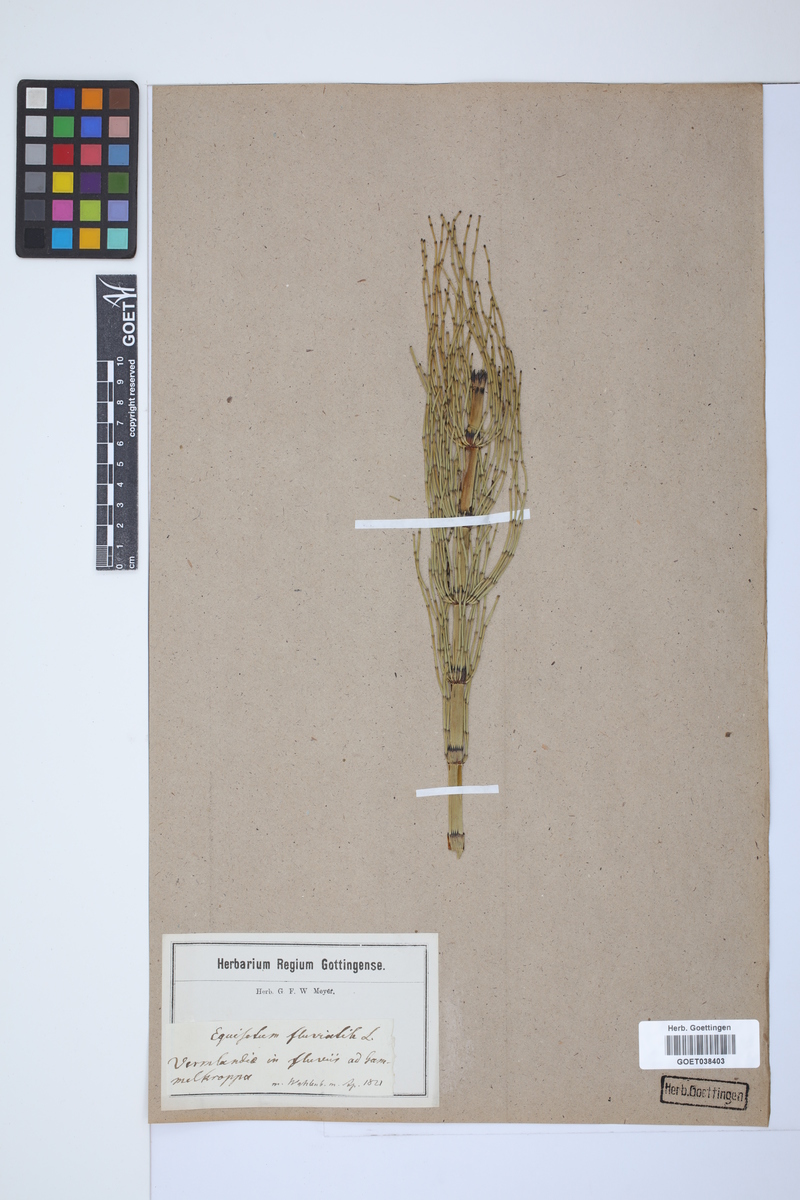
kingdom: Plantae
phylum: Tracheophyta
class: Polypodiopsida
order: Equisetales
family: Equisetaceae
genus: Equisetum
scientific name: Equisetum fluviatile
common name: Water horsetail
